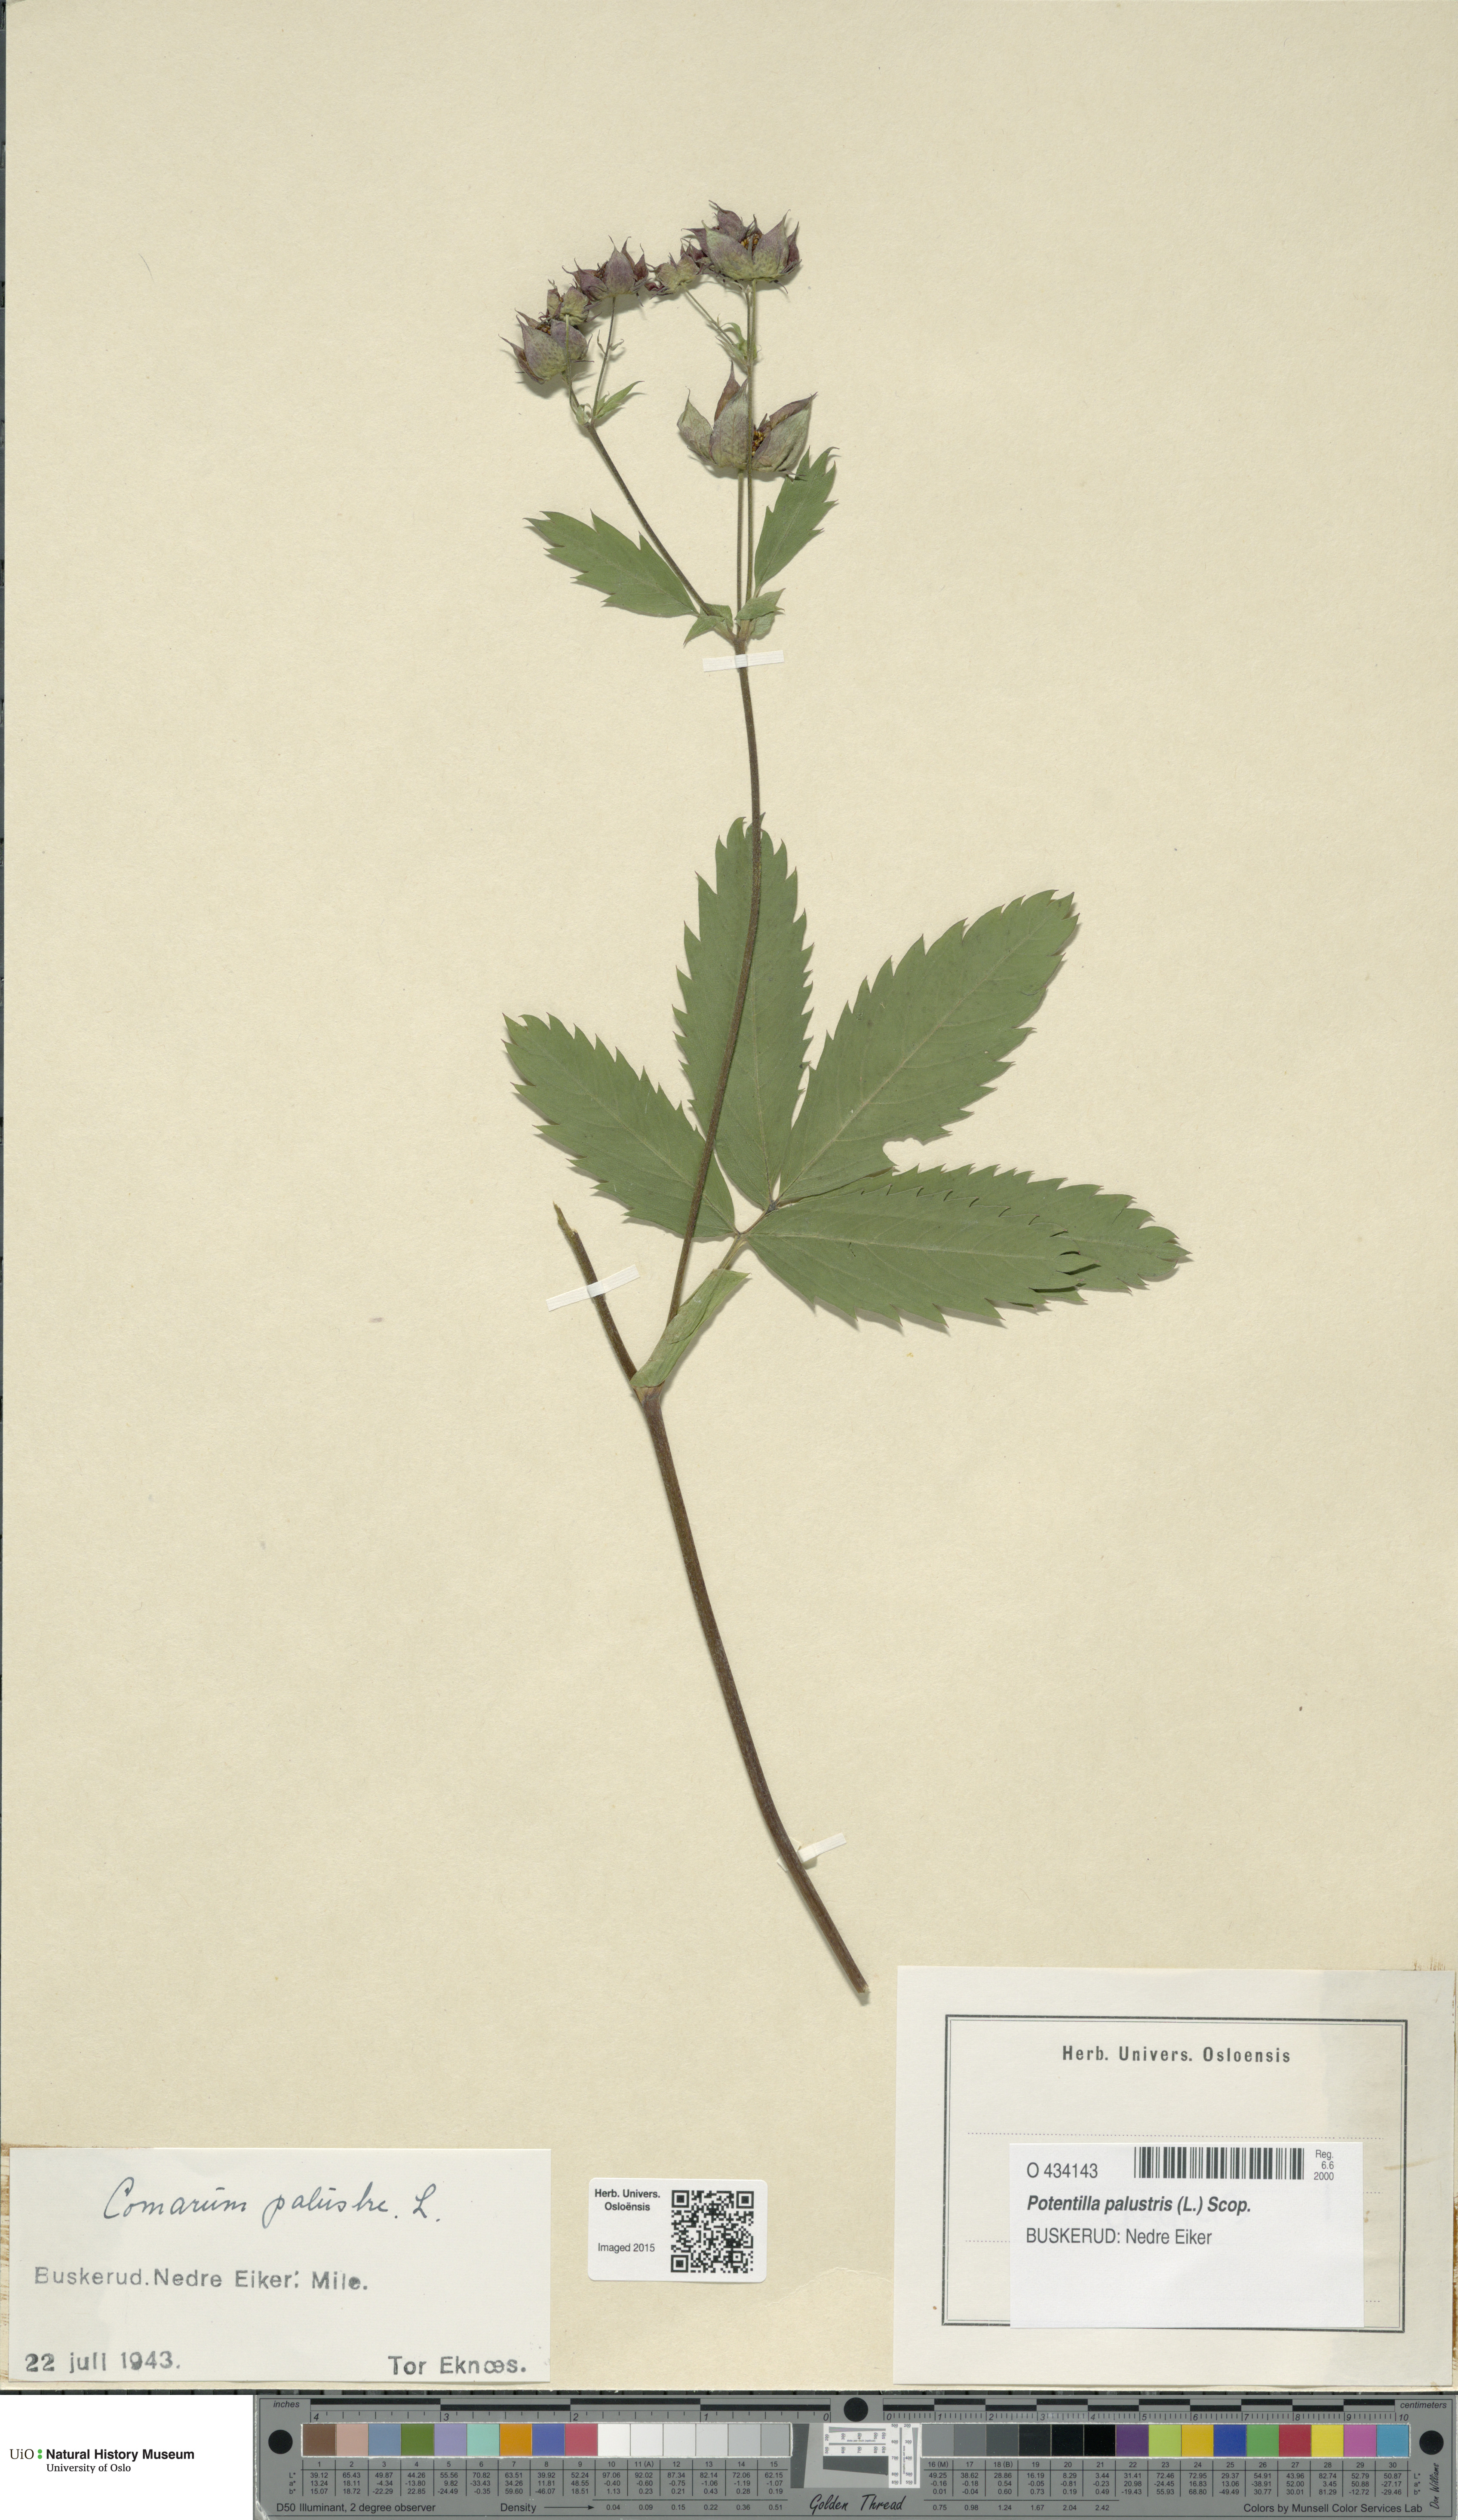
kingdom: Plantae
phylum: Tracheophyta
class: Magnoliopsida
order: Rosales
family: Rosaceae
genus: Comarum
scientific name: Comarum palustre
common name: Marsh cinquefoil
